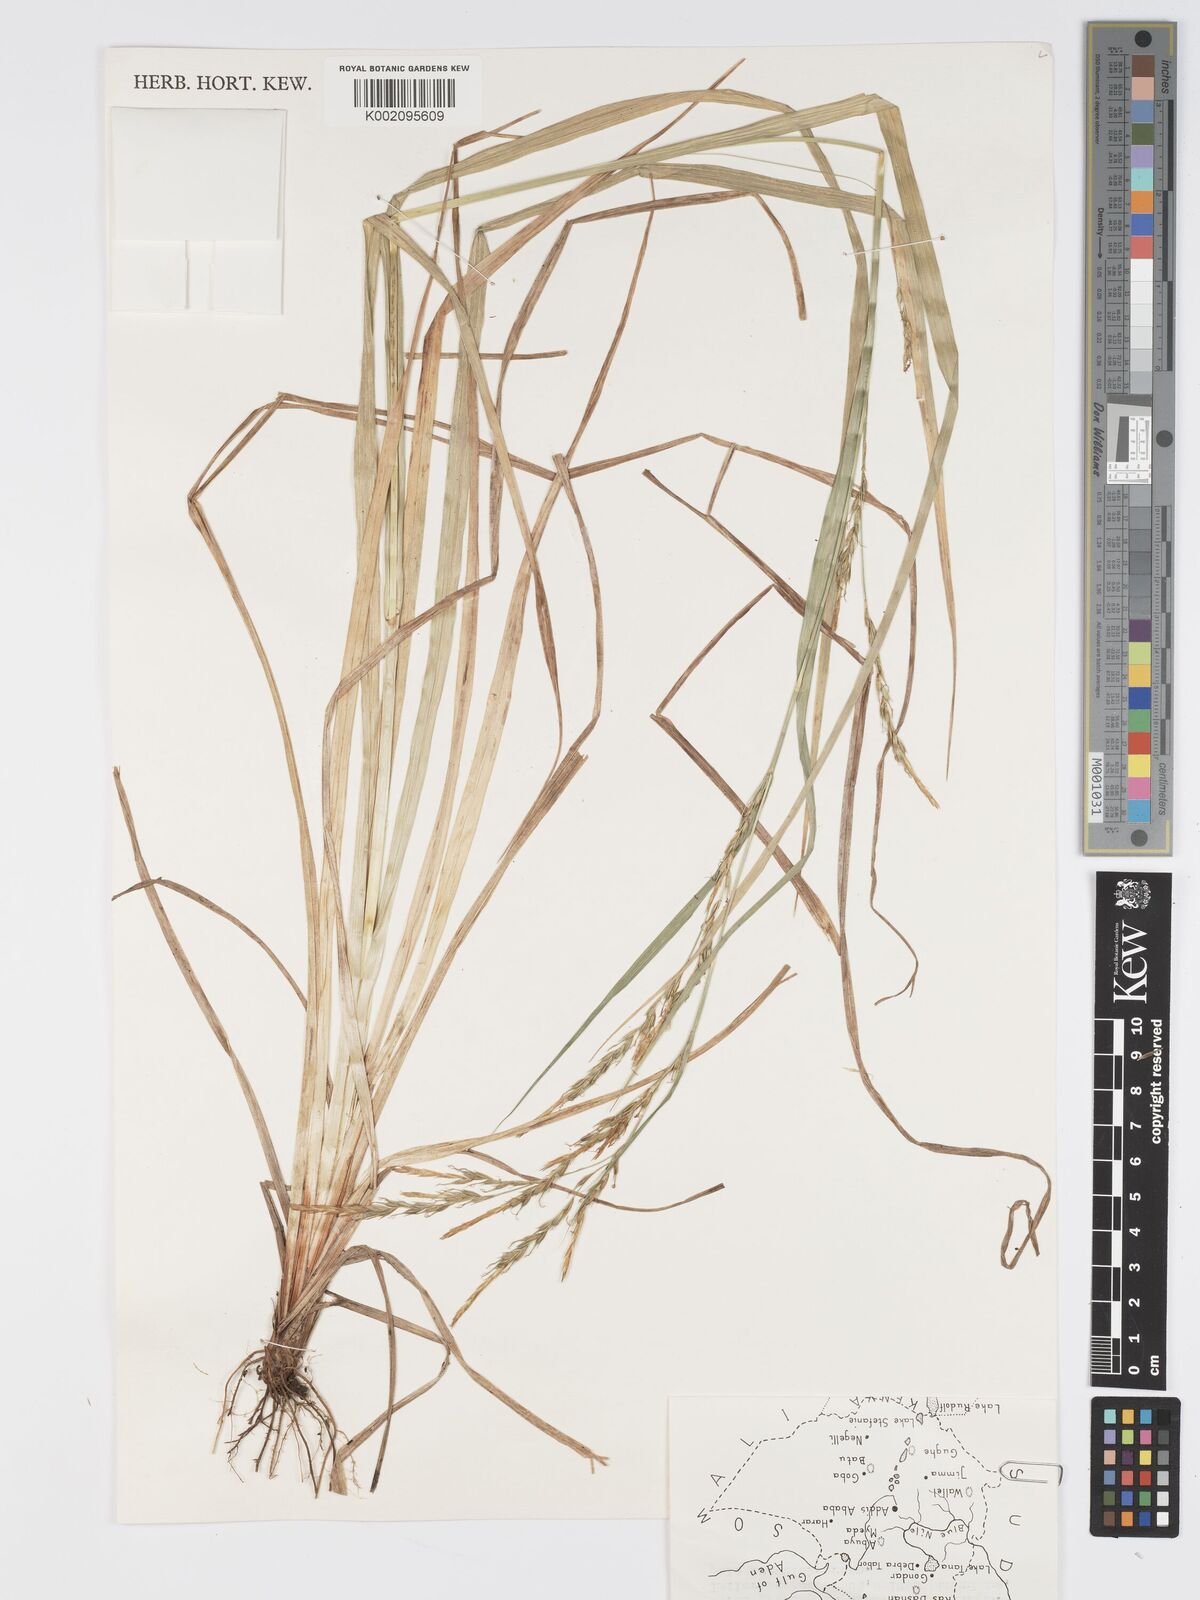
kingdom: Plantae
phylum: Tracheophyta
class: Liliopsida
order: Poales
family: Cyperaceae
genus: Carex
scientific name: Carex johnstonii
